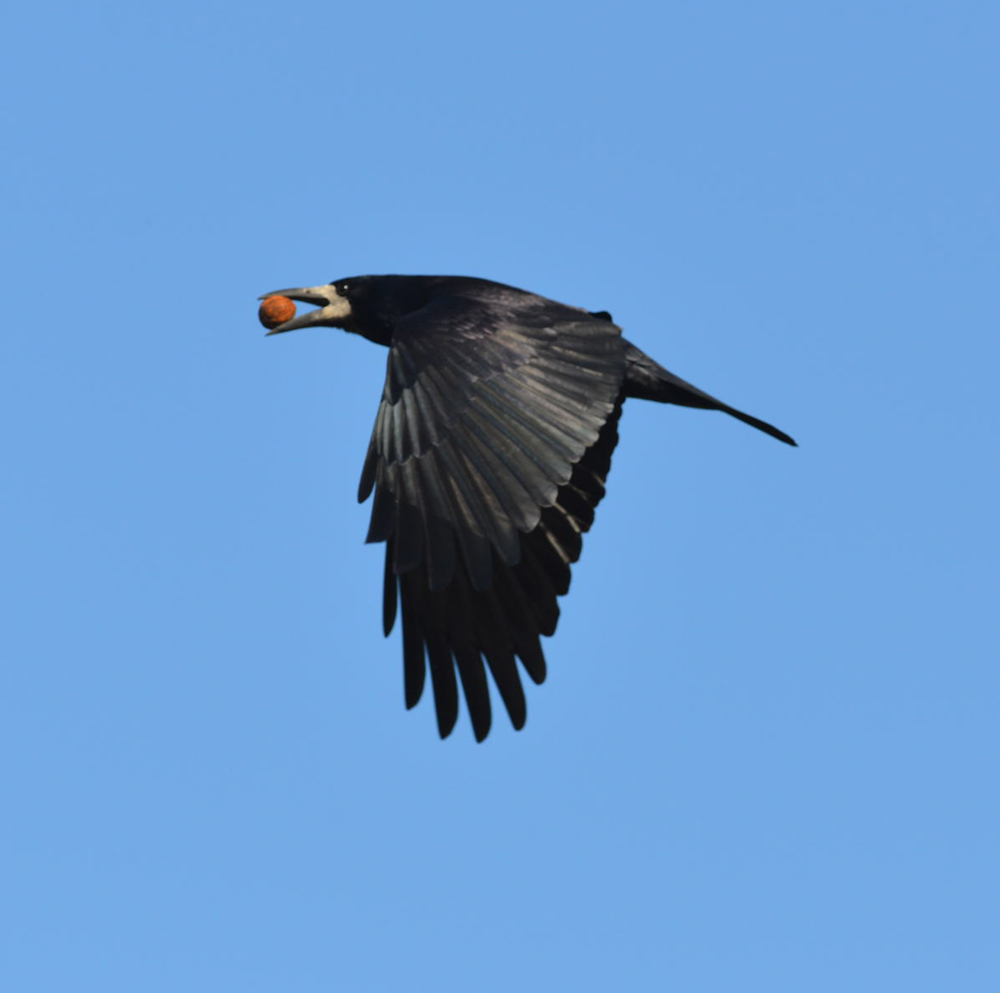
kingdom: Animalia
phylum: Chordata
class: Aves
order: Passeriformes
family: Corvidae
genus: Corvus
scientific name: Corvus frugilegus
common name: Rook
